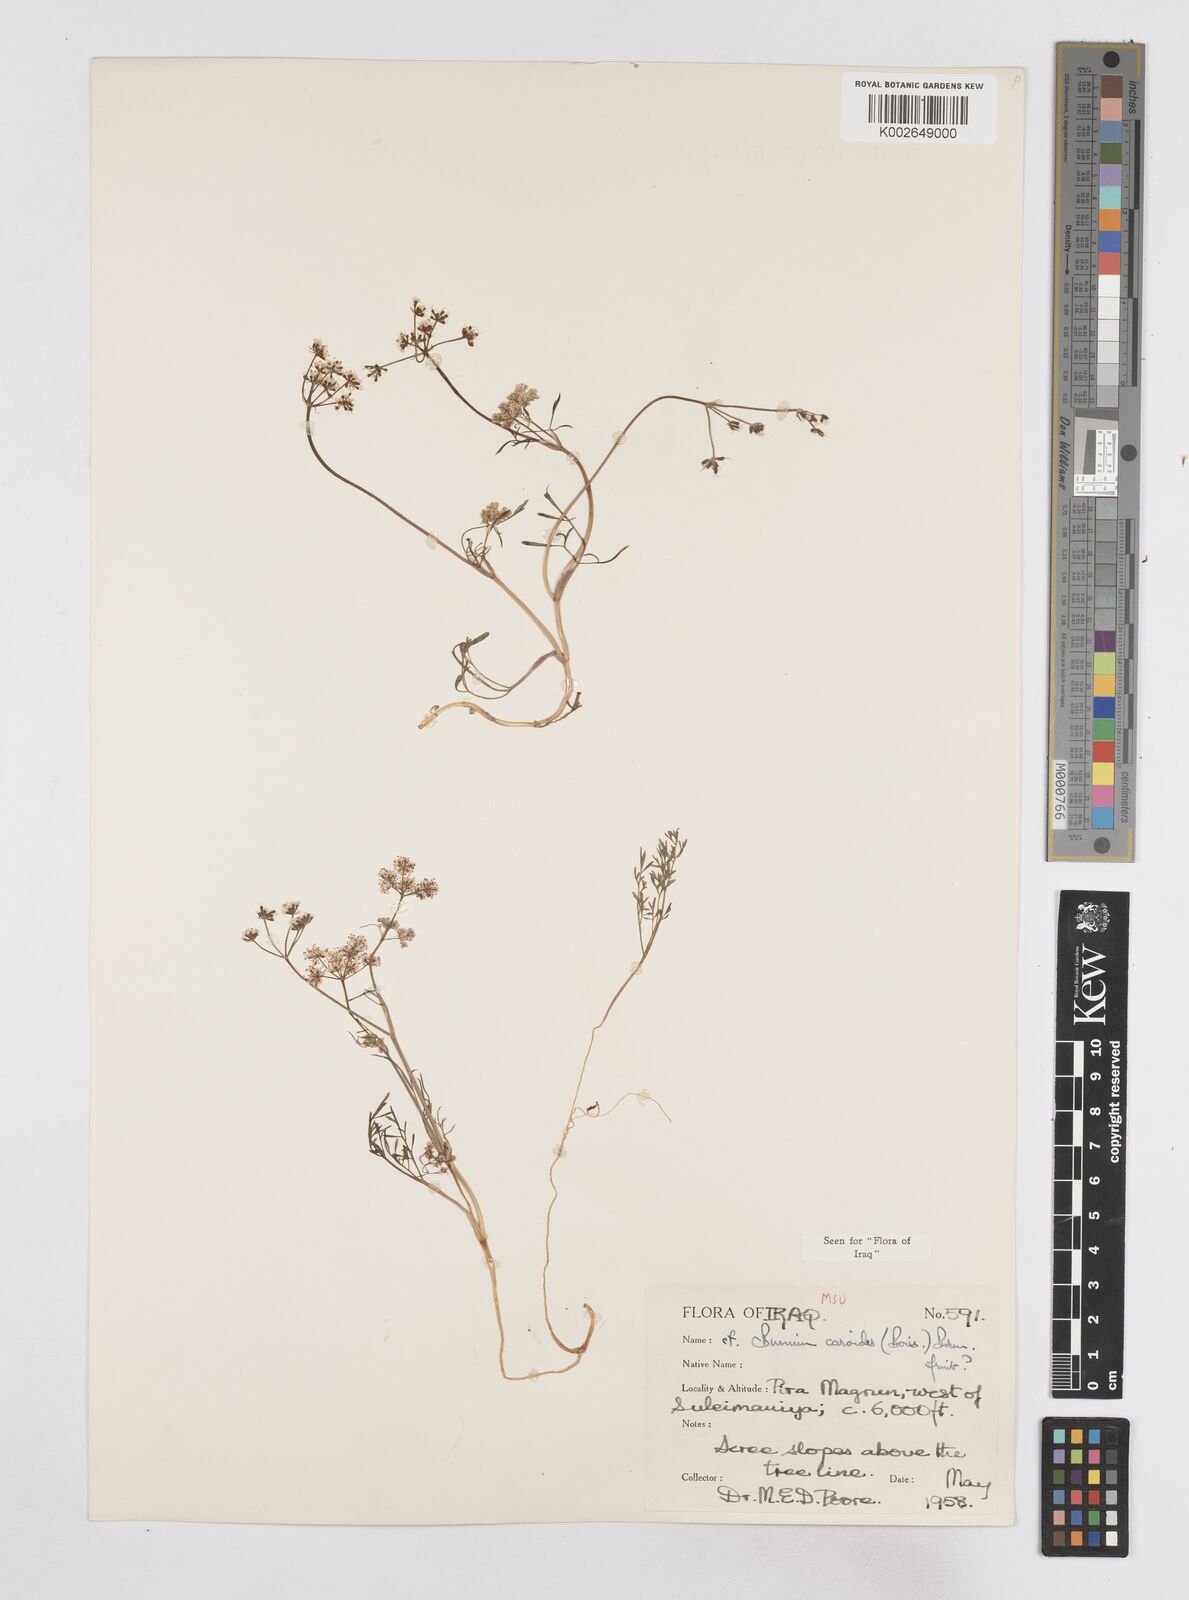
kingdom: Plantae
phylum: Tracheophyta
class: Magnoliopsida
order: Apiales
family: Apiaceae
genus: Elwendia
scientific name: Elwendia caroides
